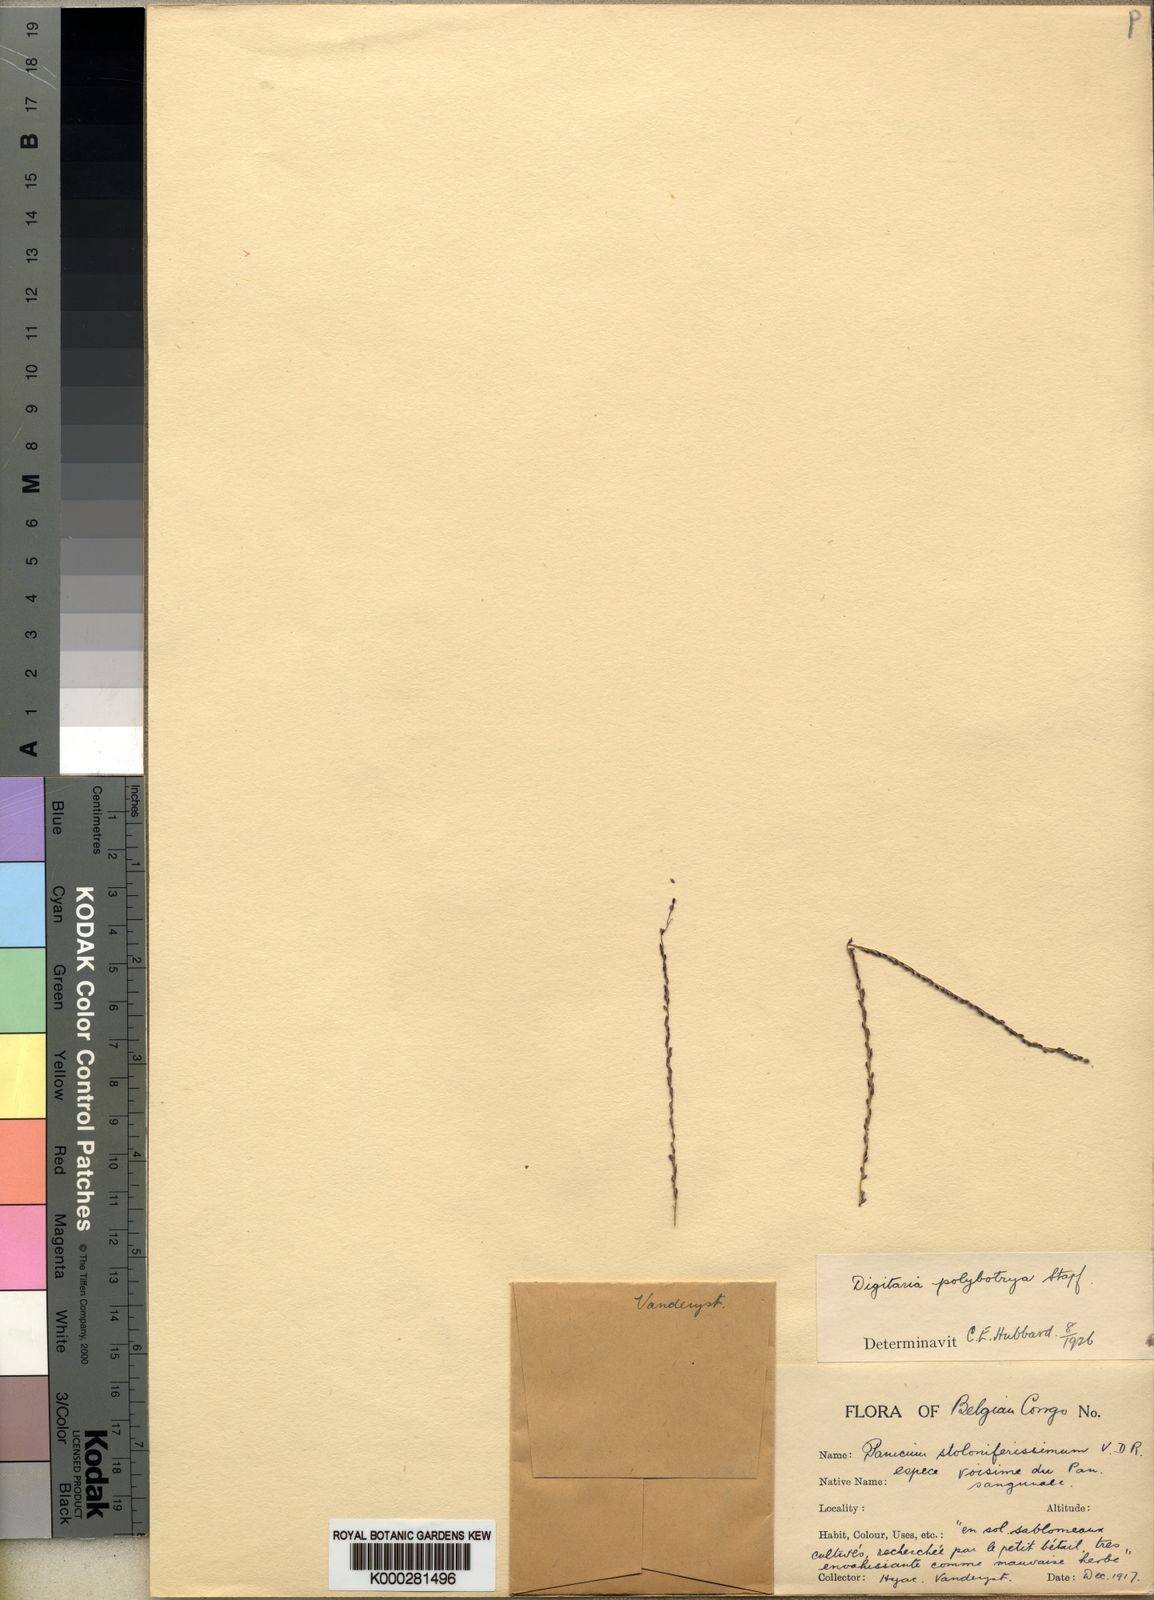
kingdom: Plantae
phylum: Tracheophyta
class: Liliopsida
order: Poales
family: Poaceae
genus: Digitaria
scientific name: Digitaria leptorhachis
